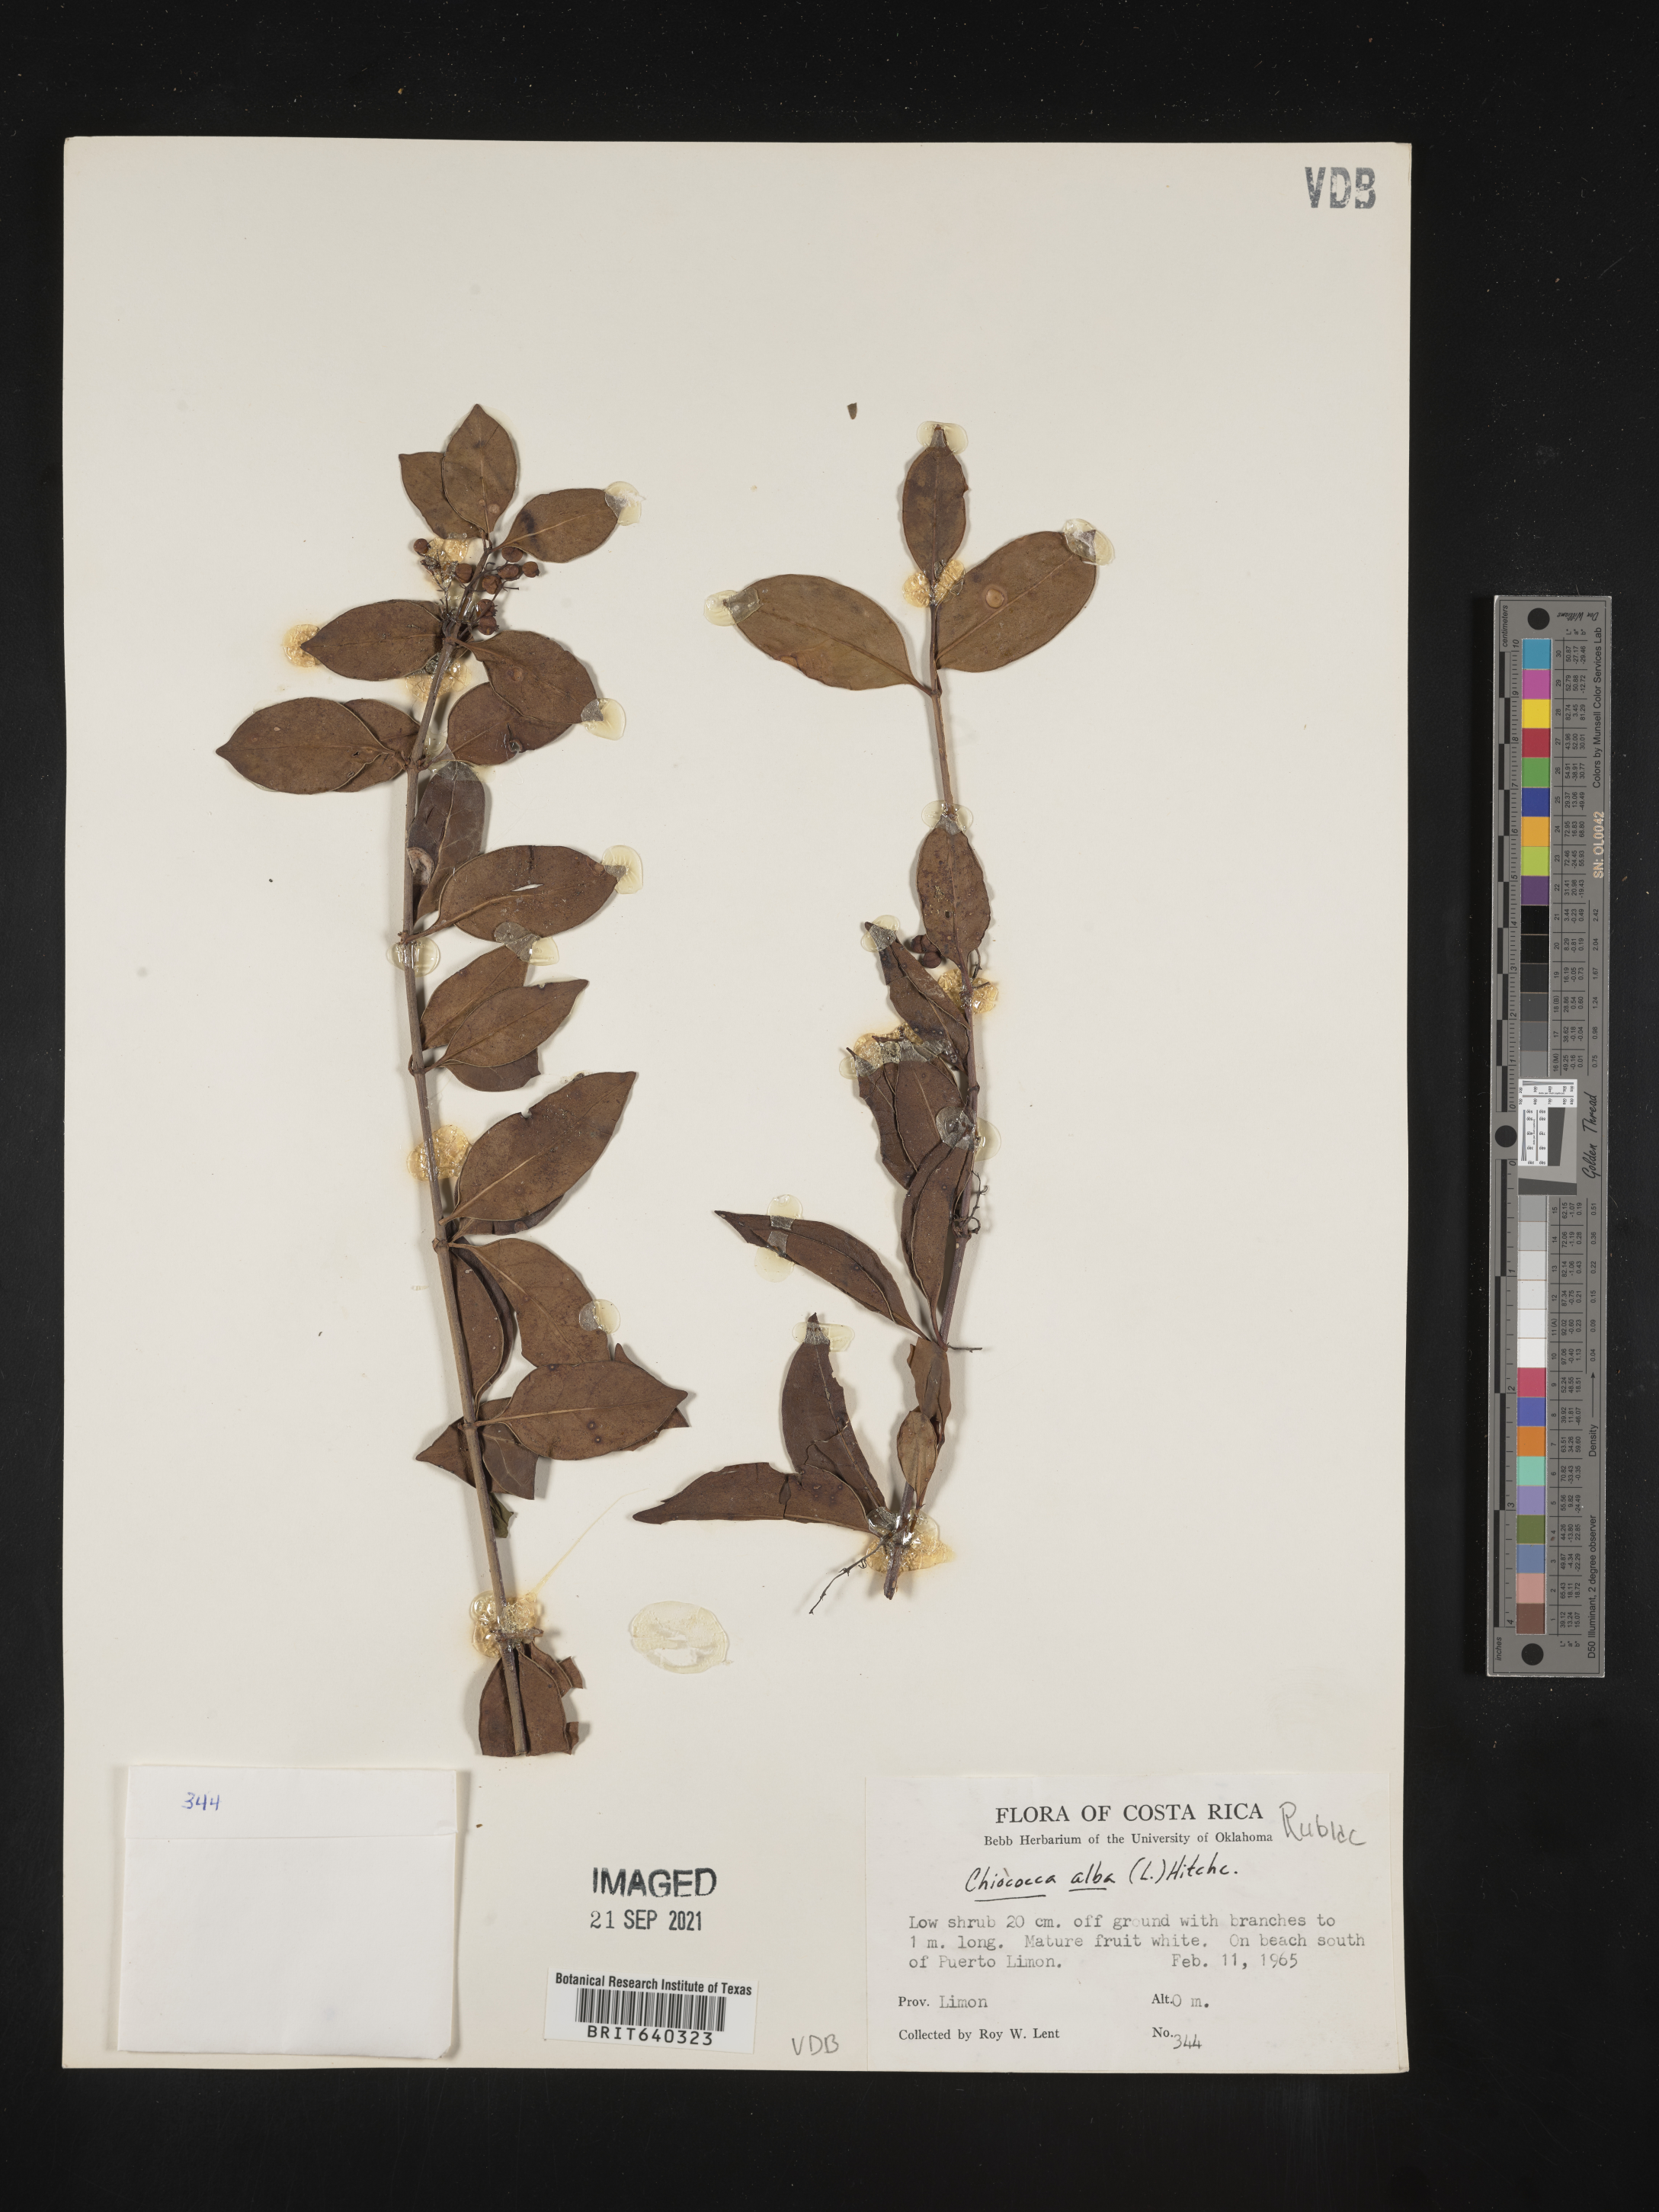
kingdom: Plantae
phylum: Tracheophyta
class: Magnoliopsida
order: Gentianales
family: Rubiaceae
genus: Chiococca
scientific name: Chiococca
